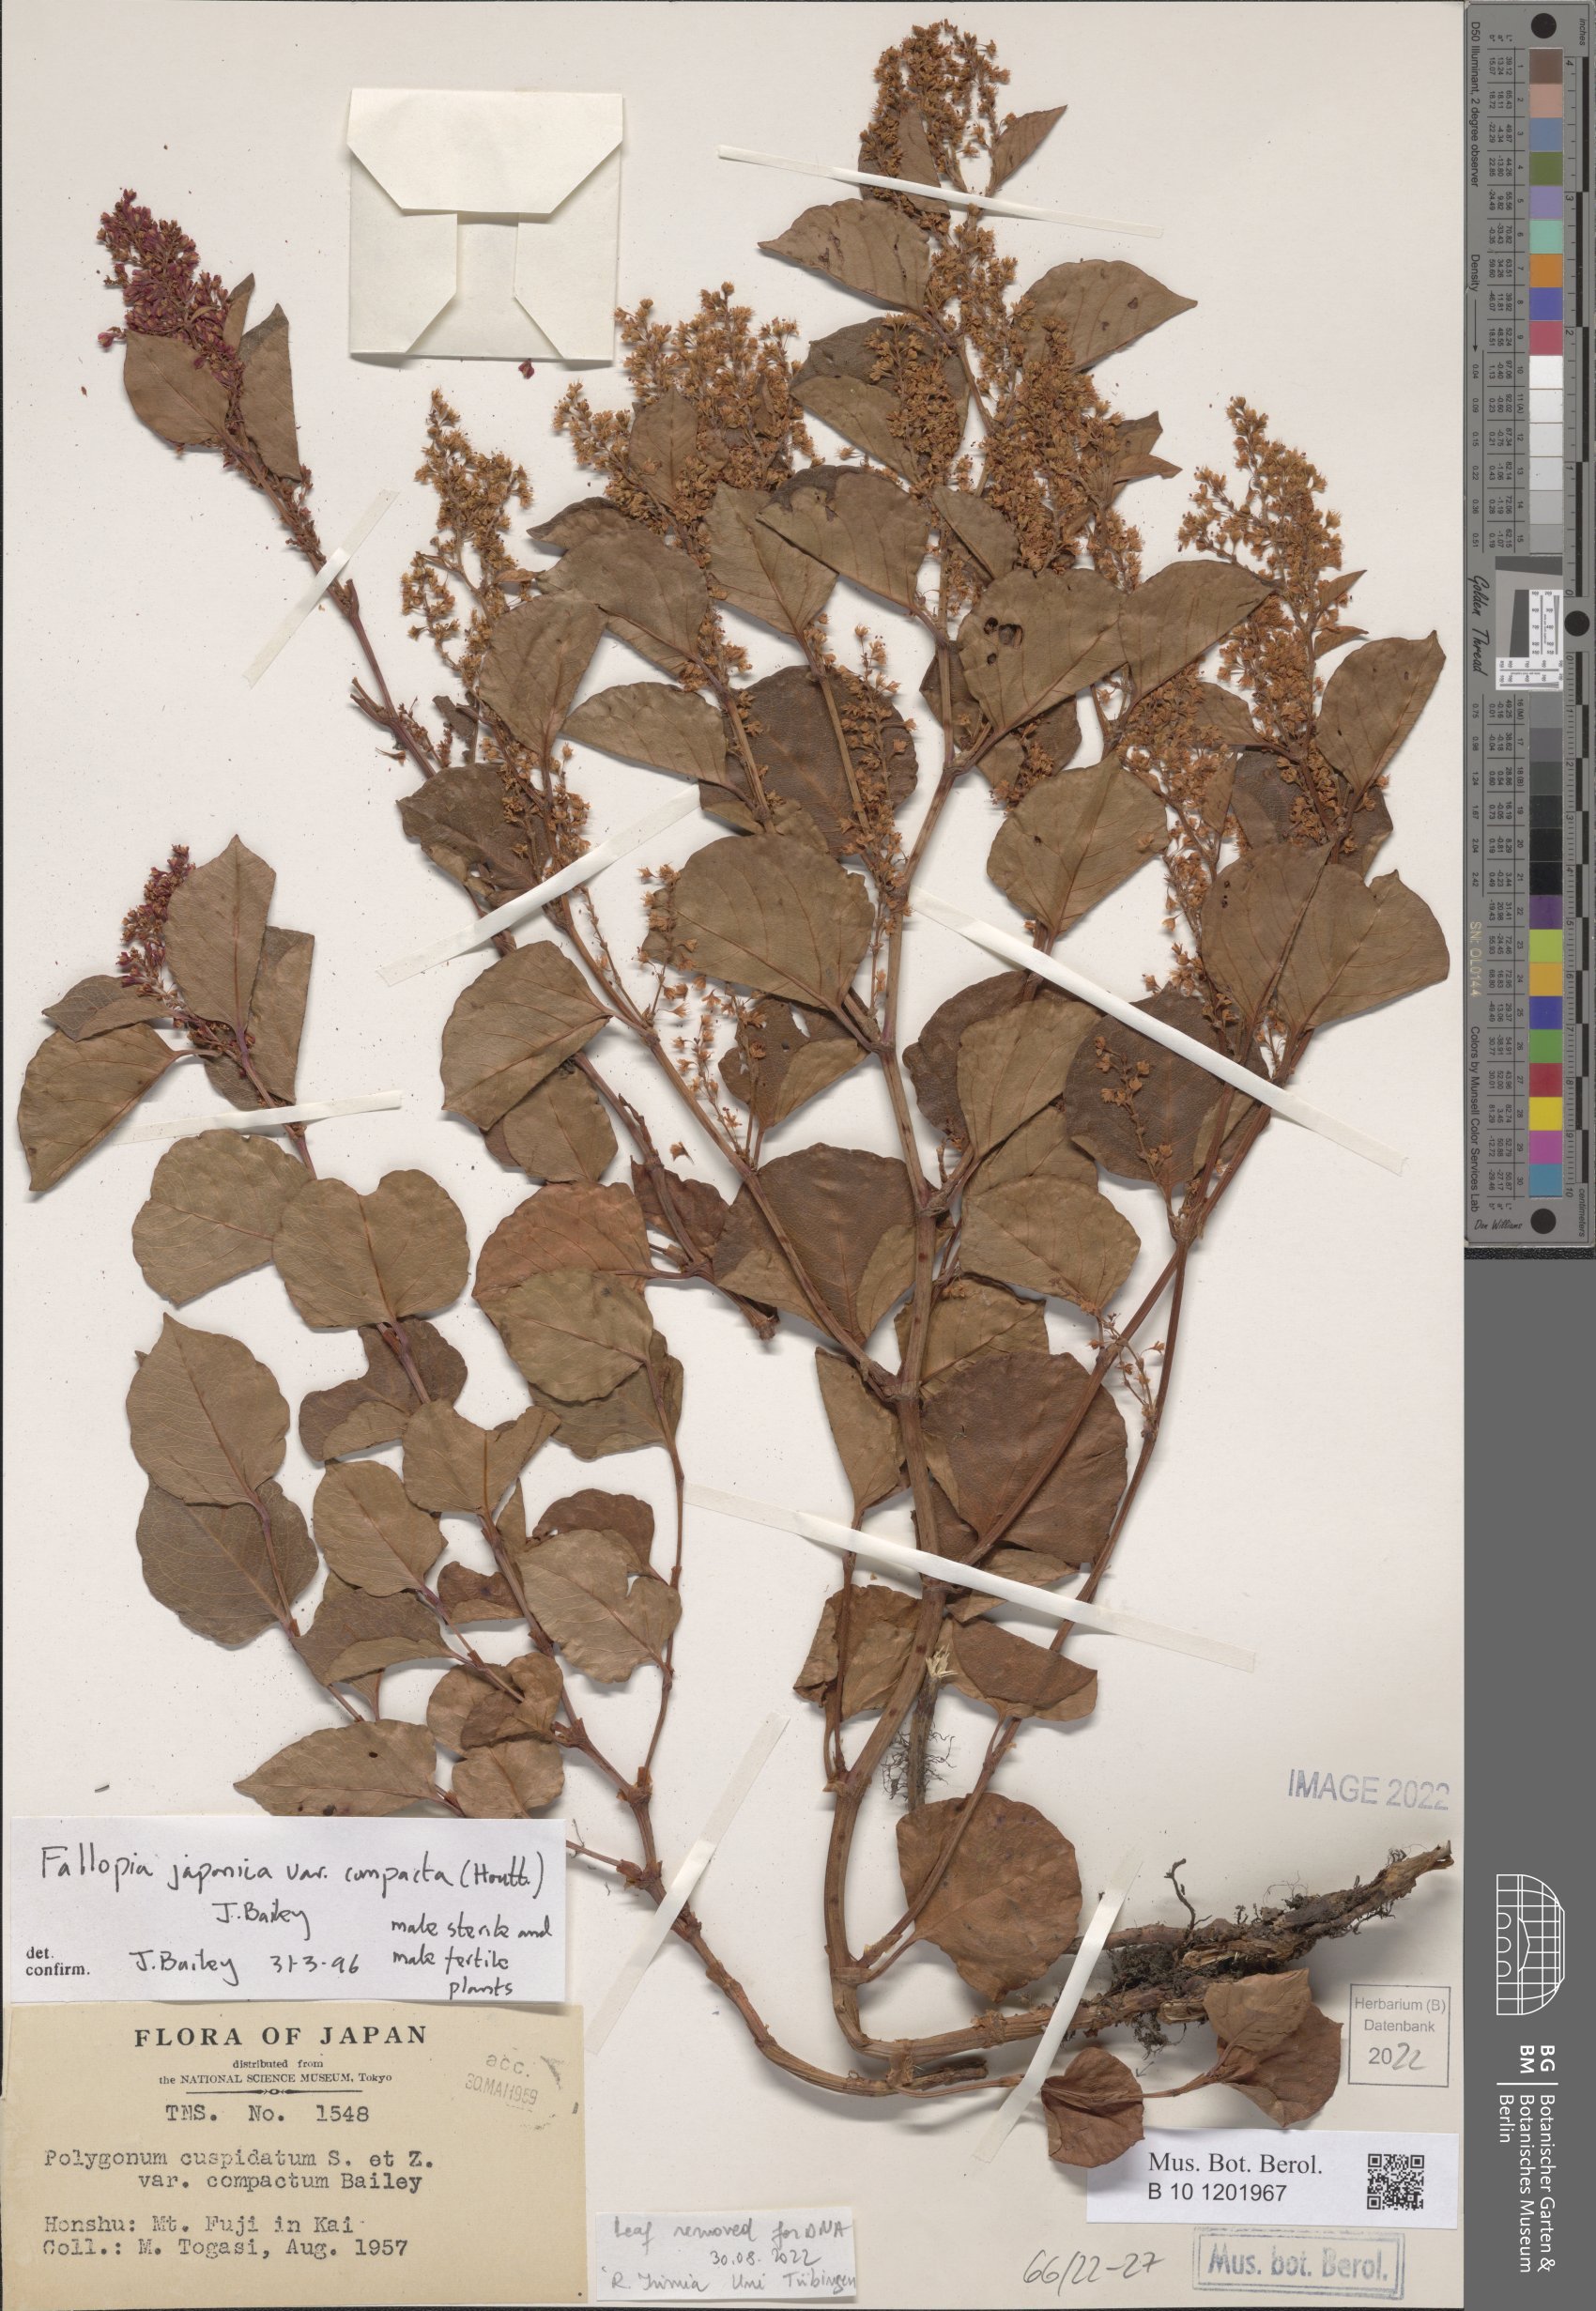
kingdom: Plantae
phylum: Tracheophyta
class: Magnoliopsida
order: Caryophyllales
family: Polygonaceae
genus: Reynoutria
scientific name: Reynoutria japonica
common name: Japanese knotweed
